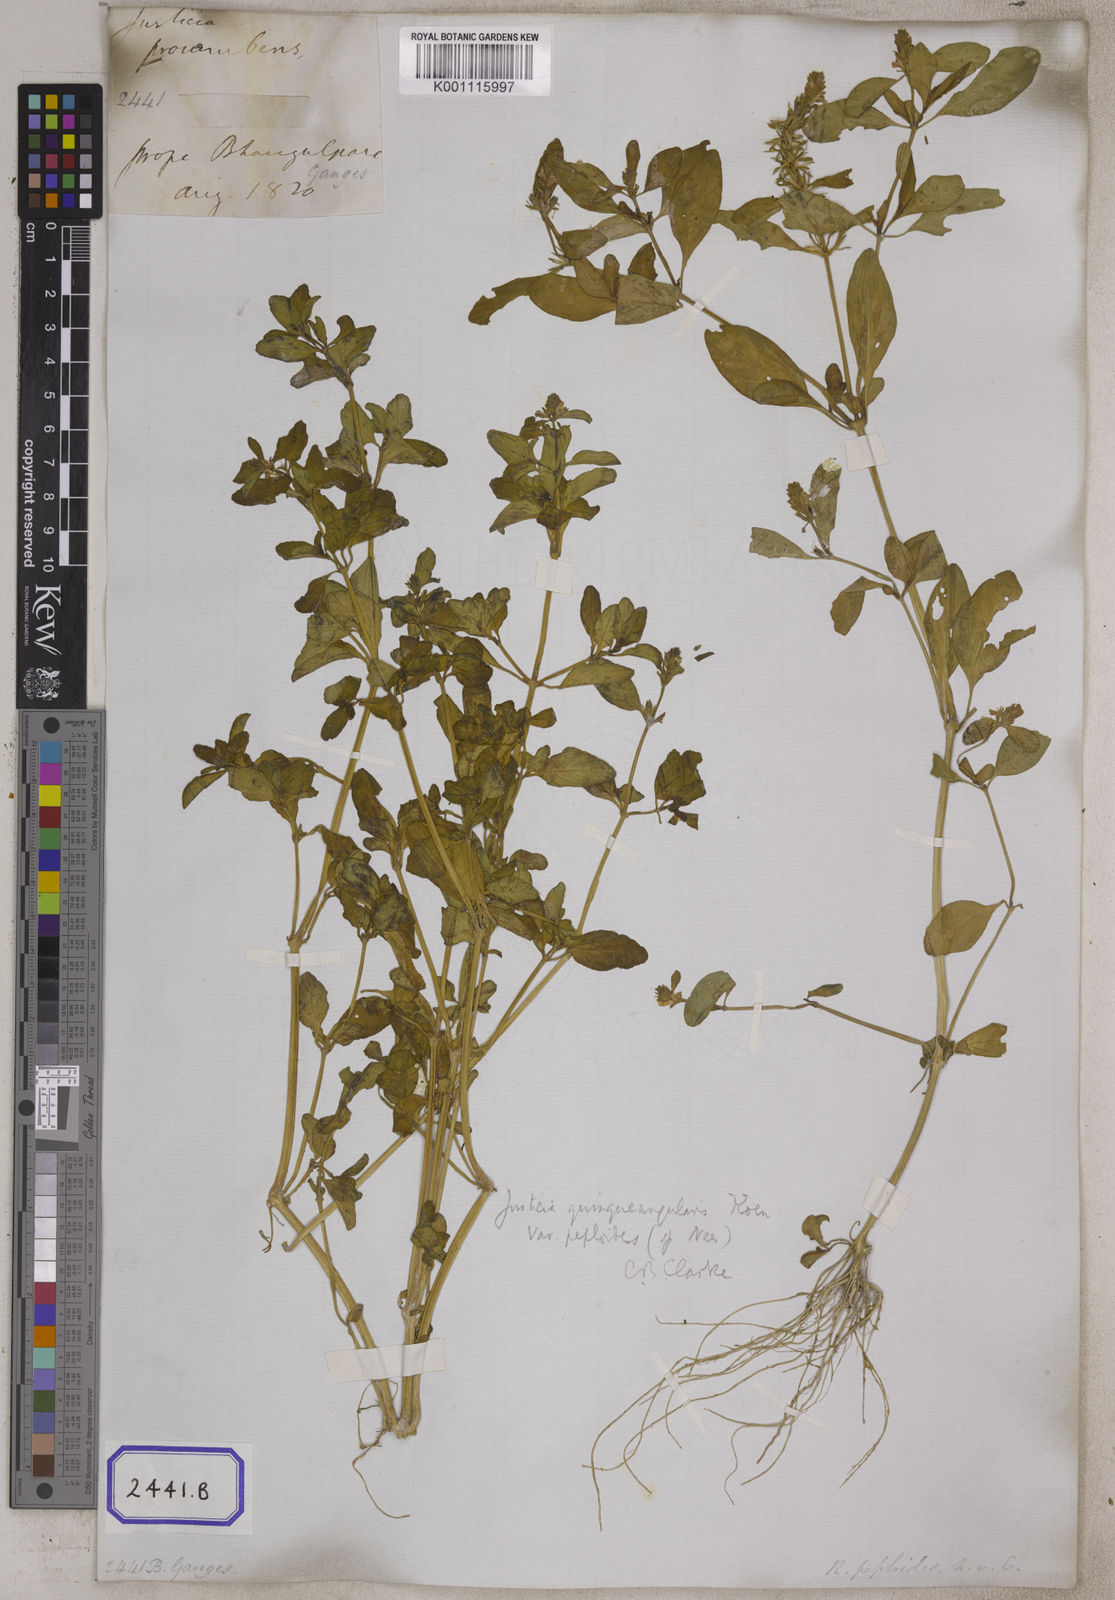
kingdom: Plantae
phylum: Tracheophyta
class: Magnoliopsida
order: Lamiales
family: Acanthaceae
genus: Rostellularia
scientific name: Rostellularia procumbens
